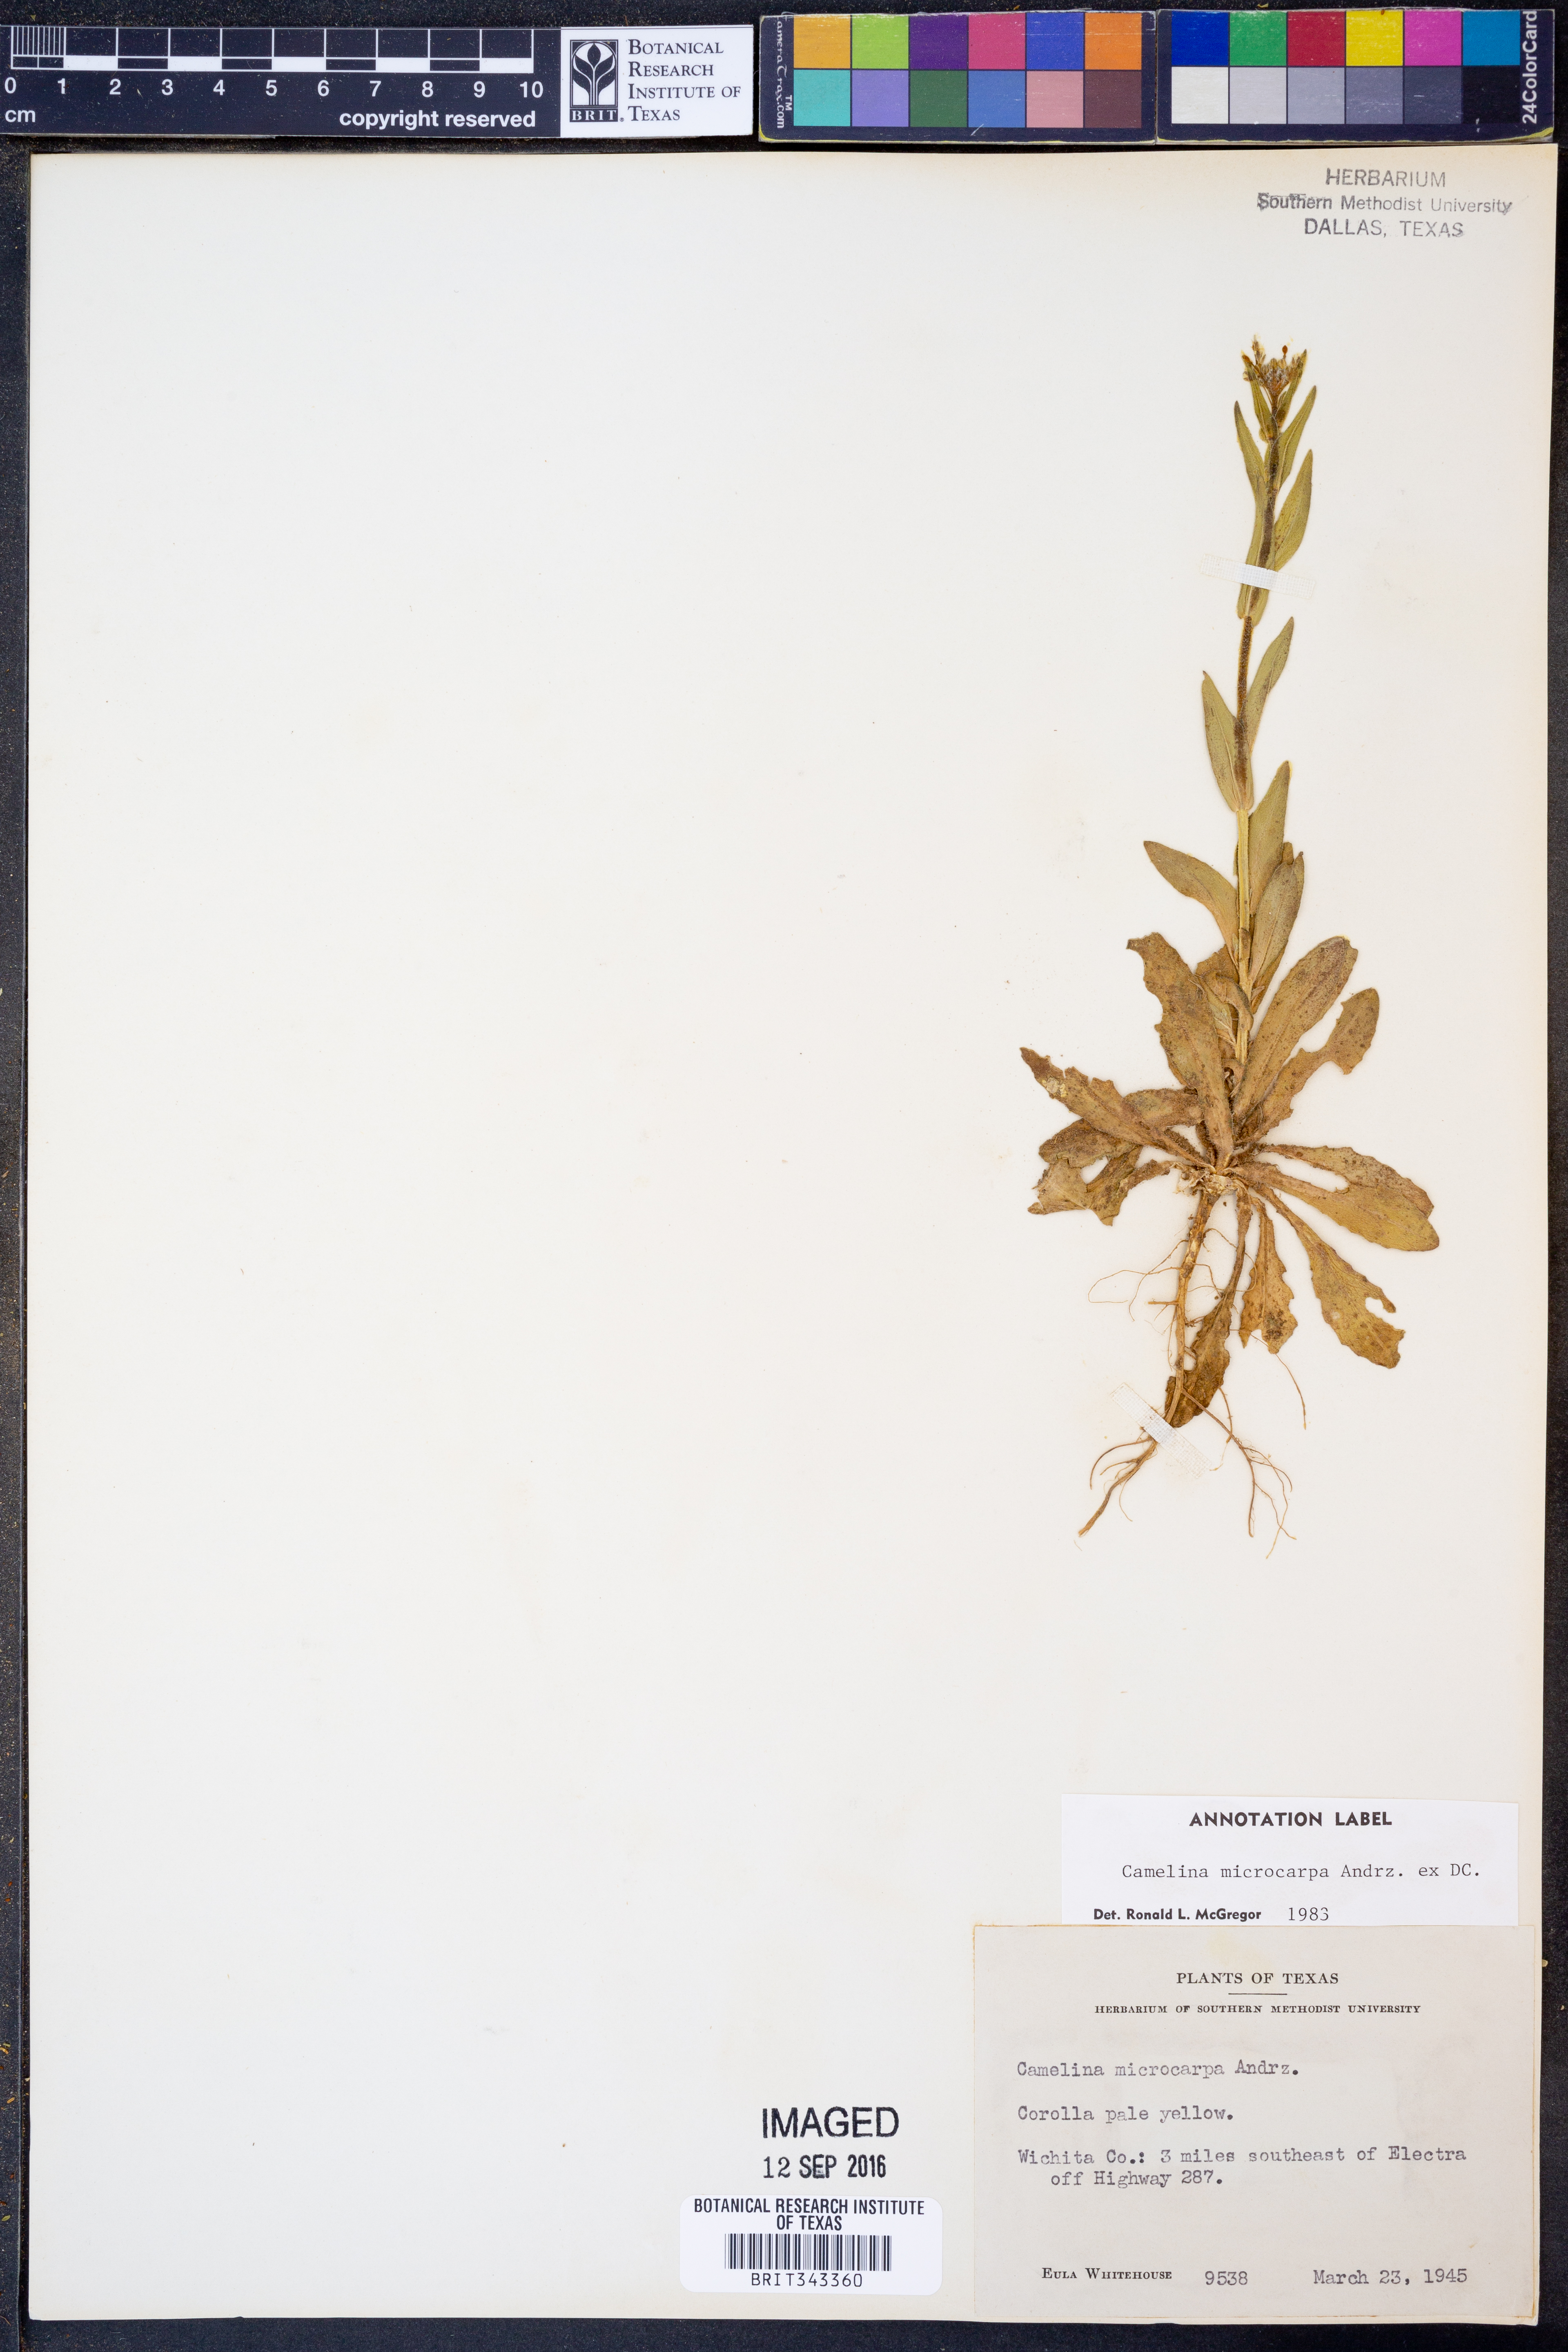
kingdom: Plantae
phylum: Tracheophyta
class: Magnoliopsida
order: Brassicales
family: Brassicaceae
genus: Camelina
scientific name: Camelina microcarpa
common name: Lesser gold-of-pleasure
